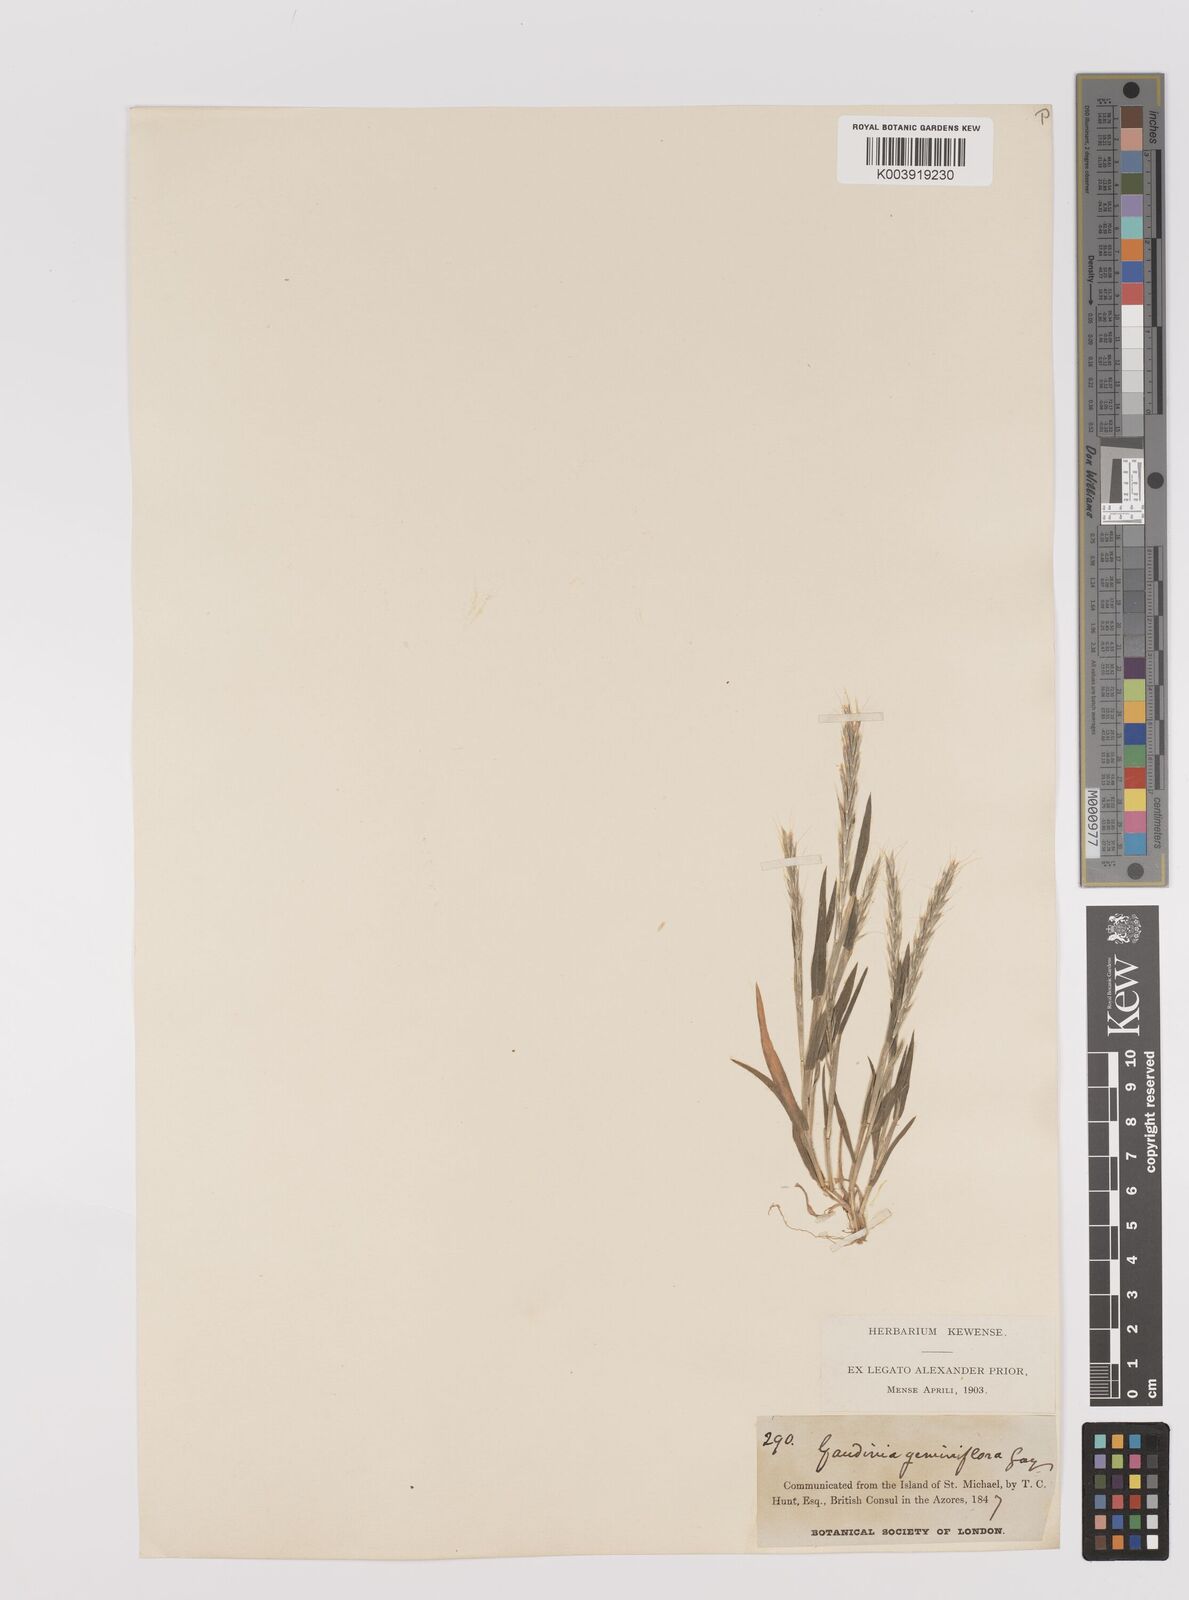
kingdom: Plantae
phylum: Tracheophyta
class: Liliopsida
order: Poales
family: Poaceae
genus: Gaudinia
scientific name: Gaudinia coarctata
